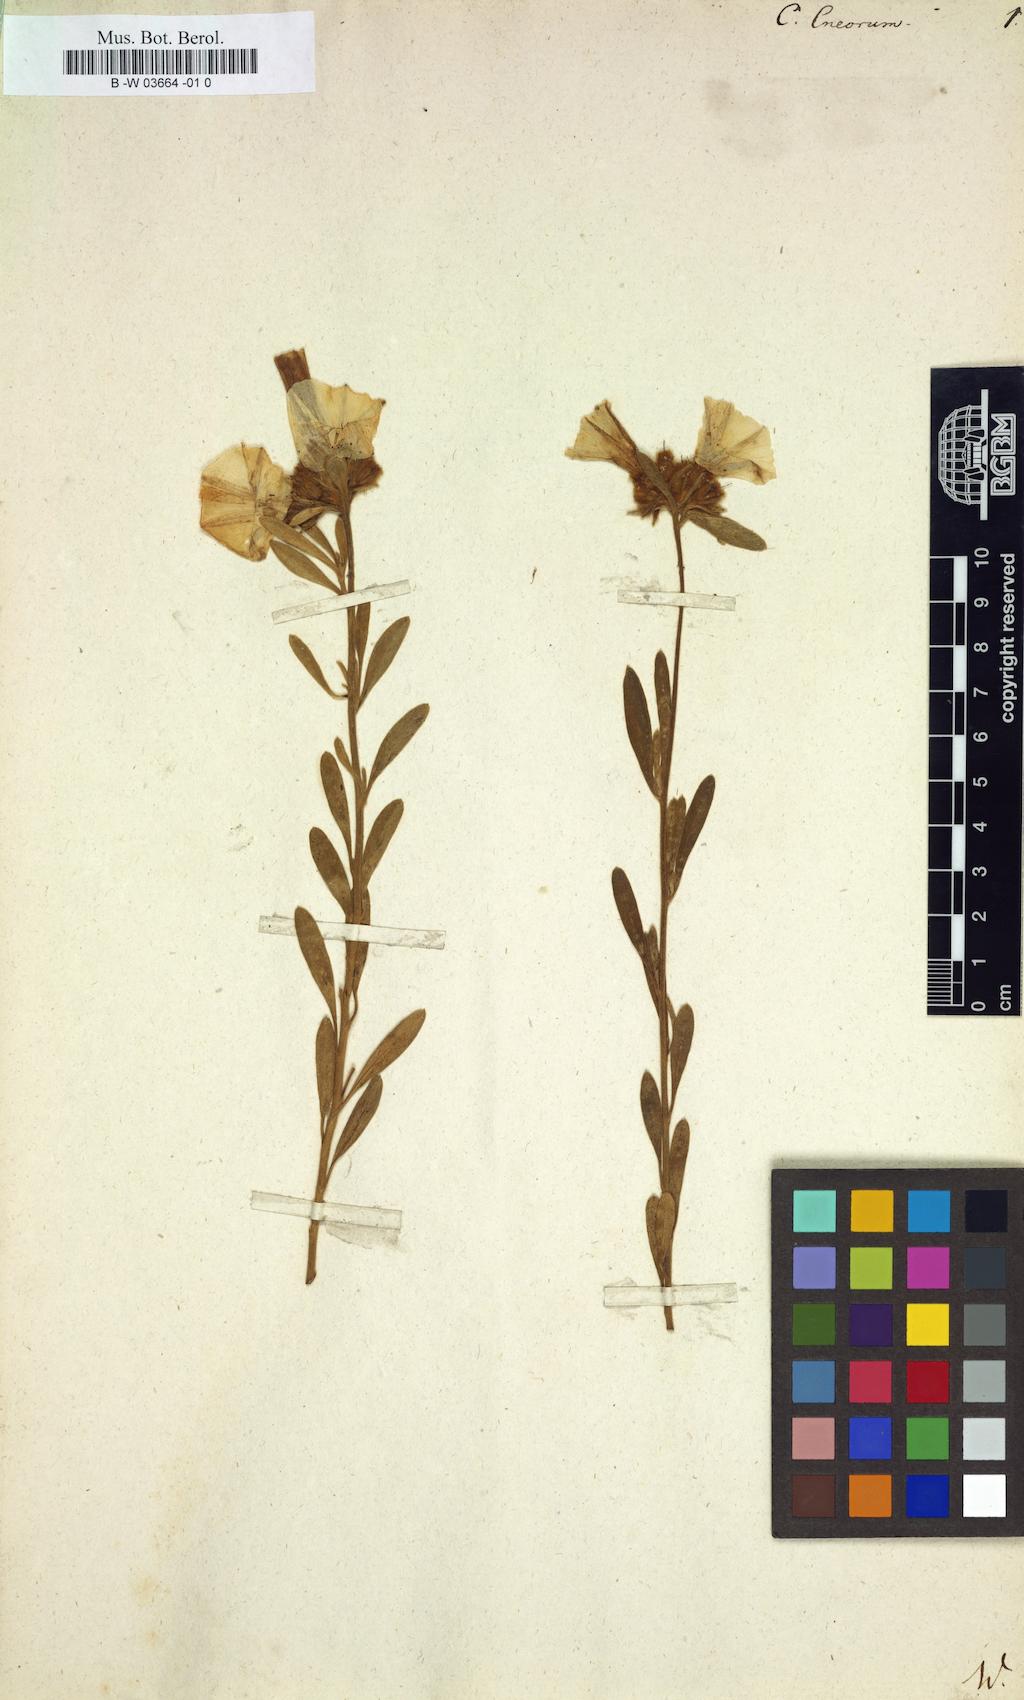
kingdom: Plantae
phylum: Tracheophyta
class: Magnoliopsida
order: Solanales
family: Convolvulaceae
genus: Convolvulus
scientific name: Convolvulus cneorum
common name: Silverbush
